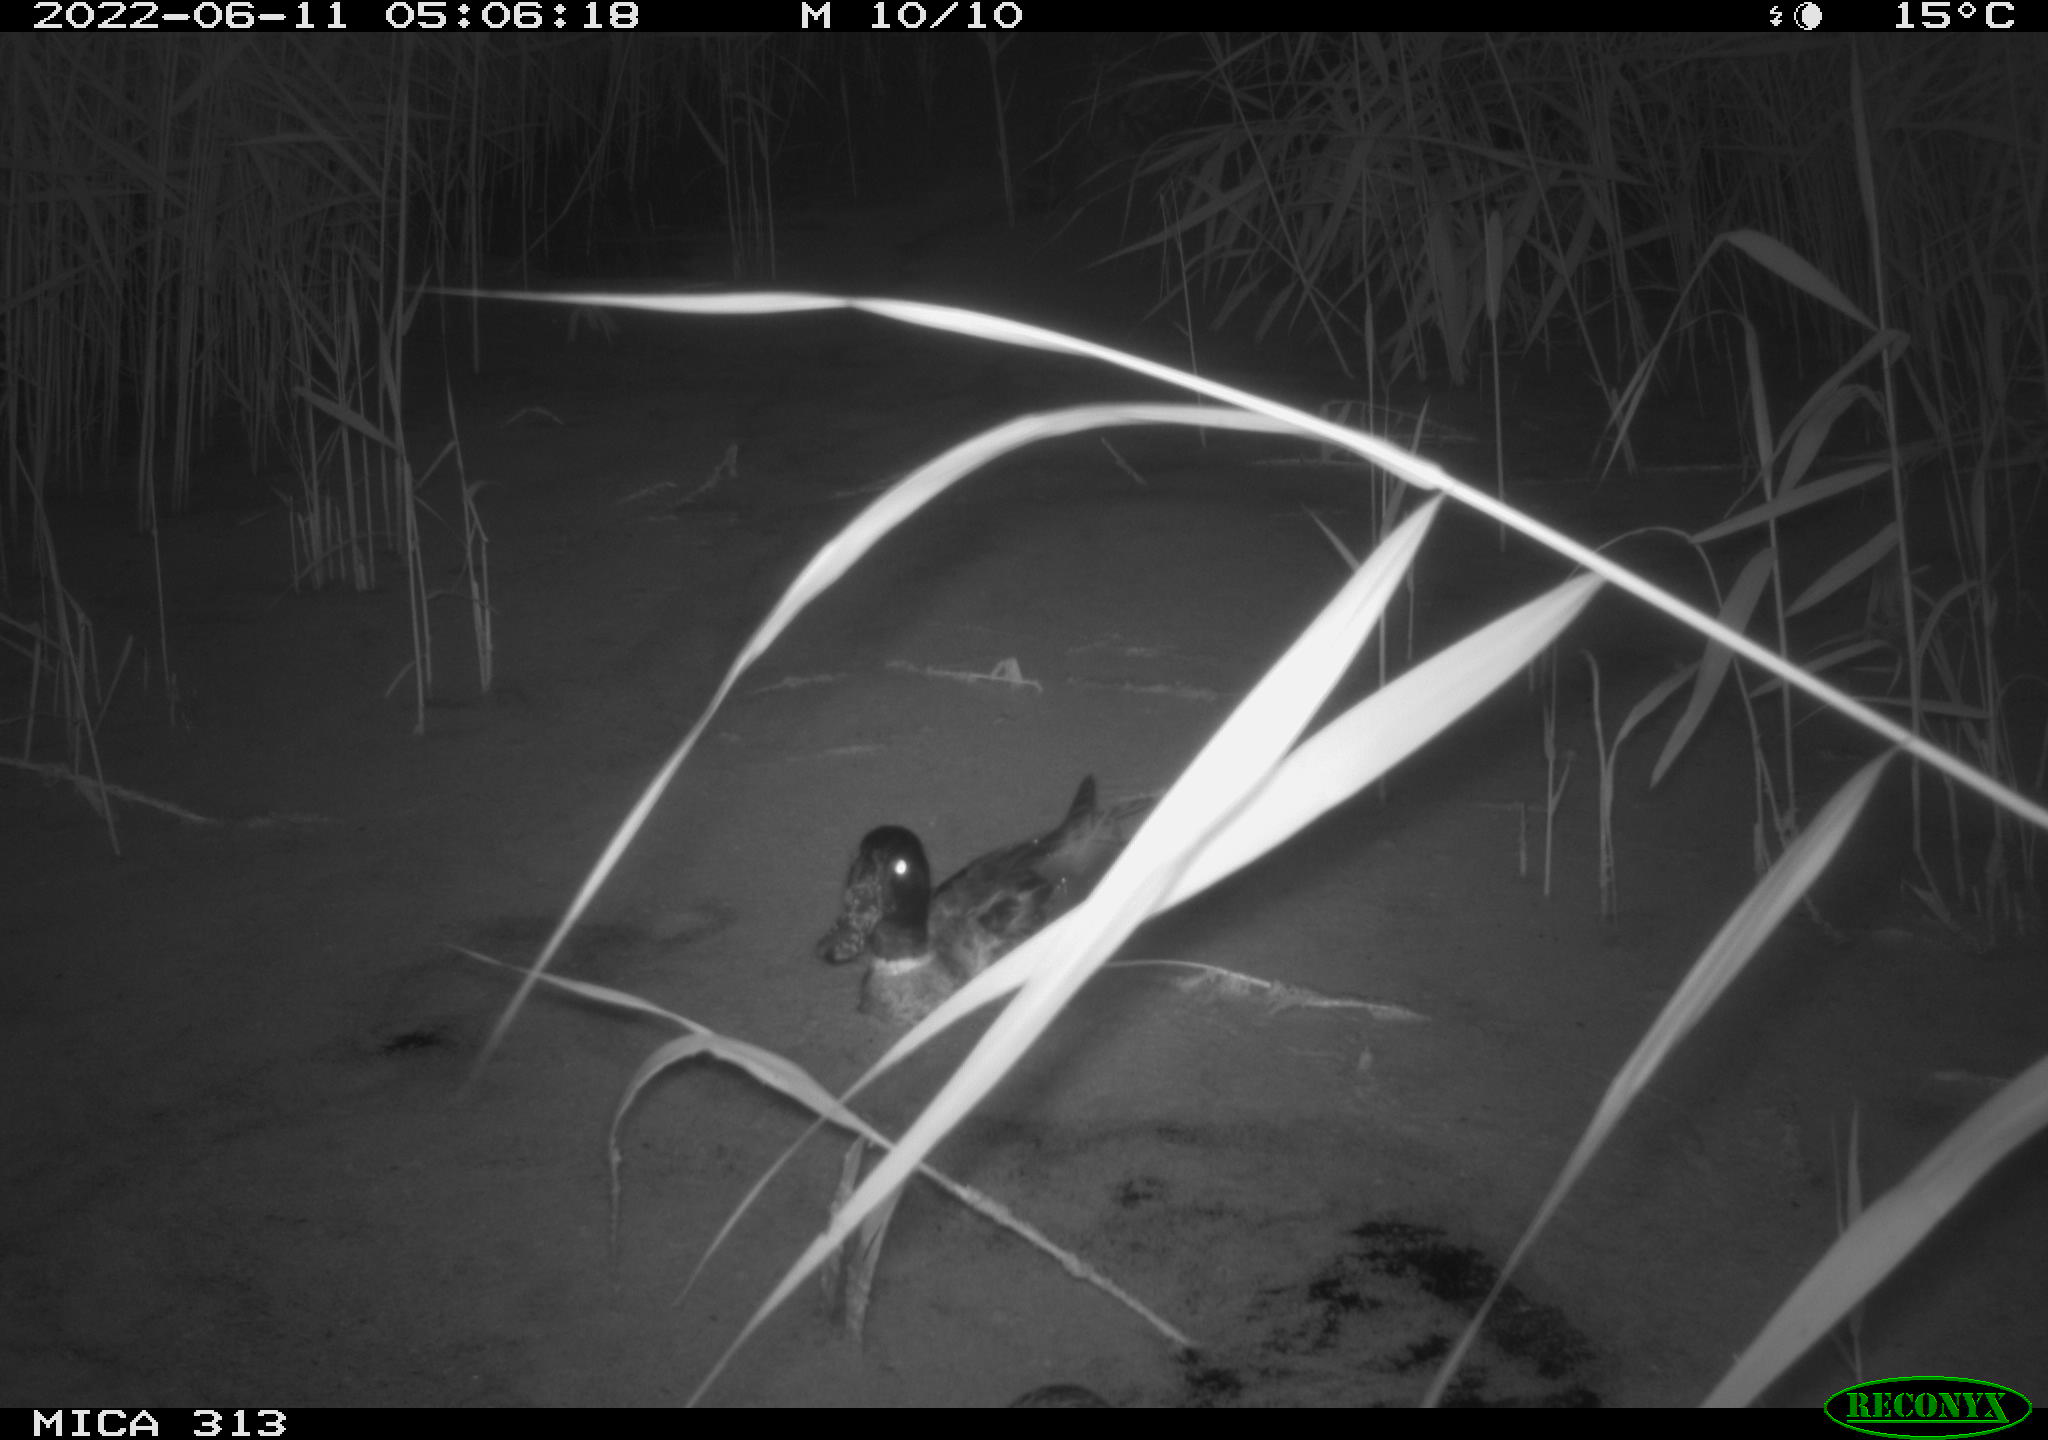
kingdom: Animalia
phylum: Chordata
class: Aves
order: Anseriformes
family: Anatidae
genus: Anas
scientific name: Anas platyrhynchos
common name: Mallard
